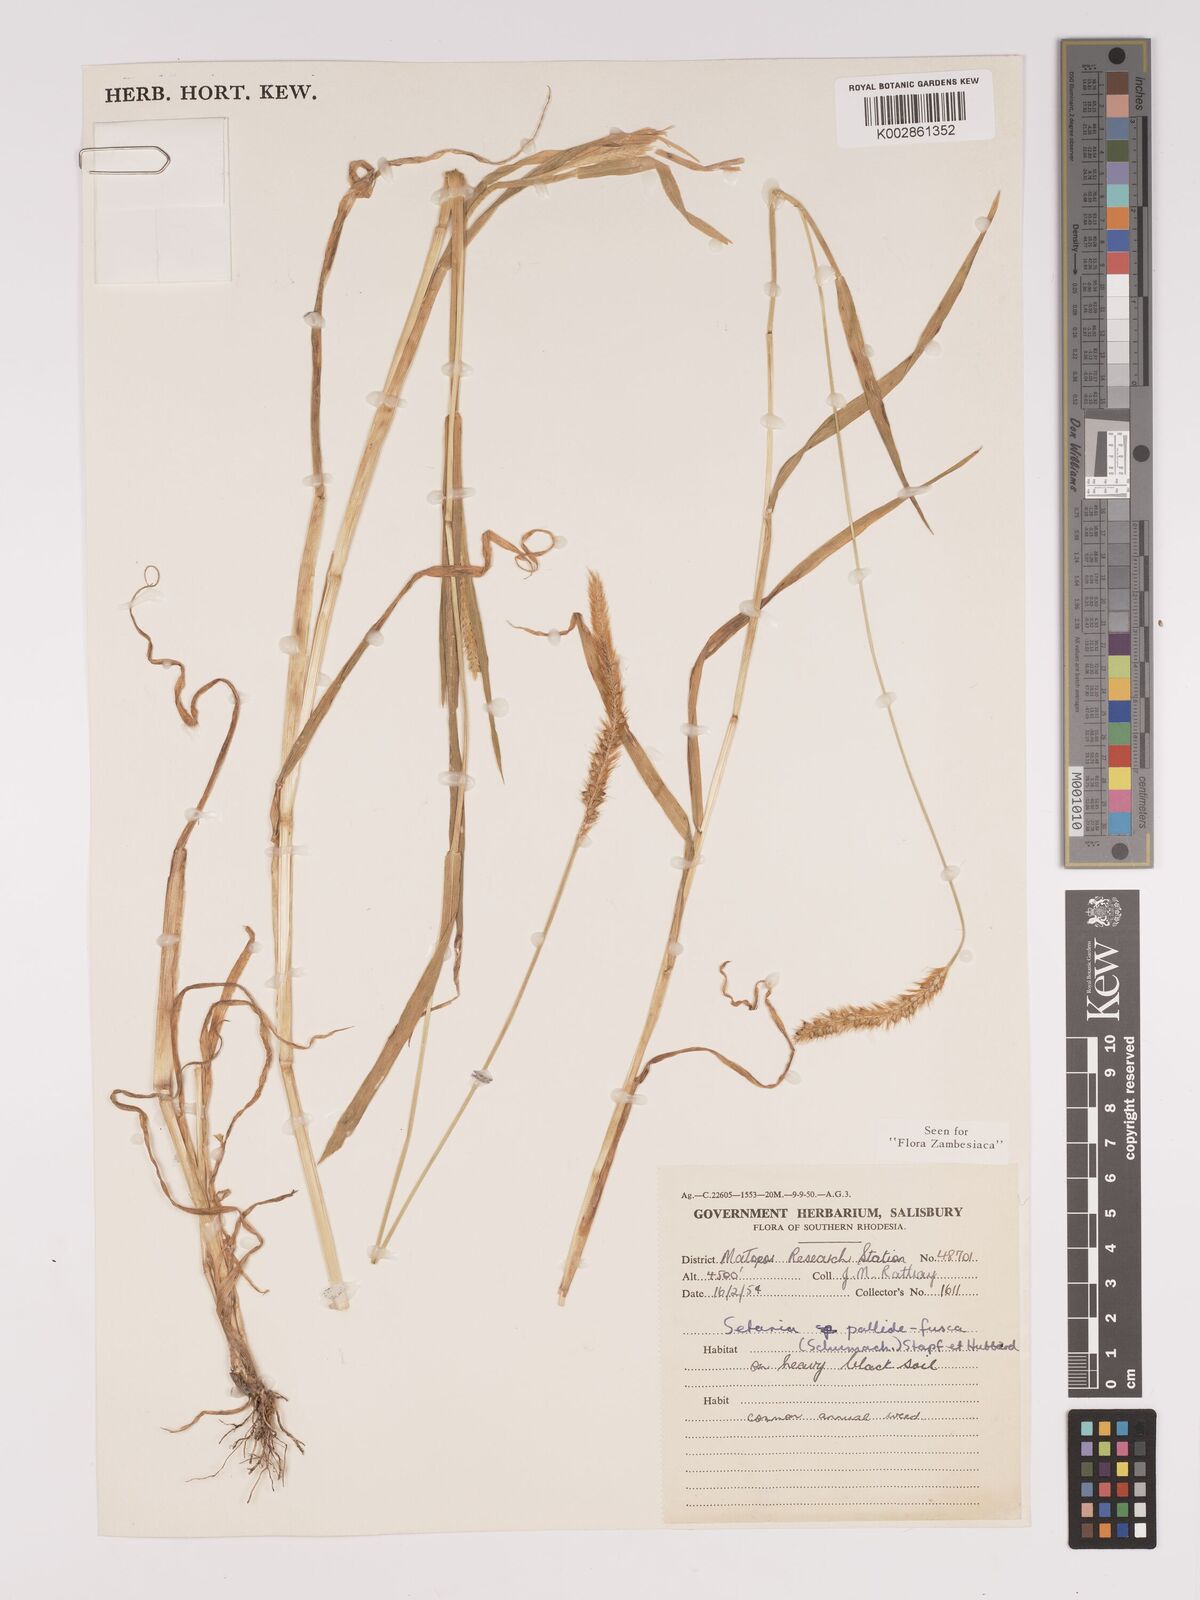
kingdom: Plantae
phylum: Tracheophyta
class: Liliopsida
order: Poales
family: Poaceae
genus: Setaria
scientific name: Setaria pumila
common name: Yellow bristle-grass
